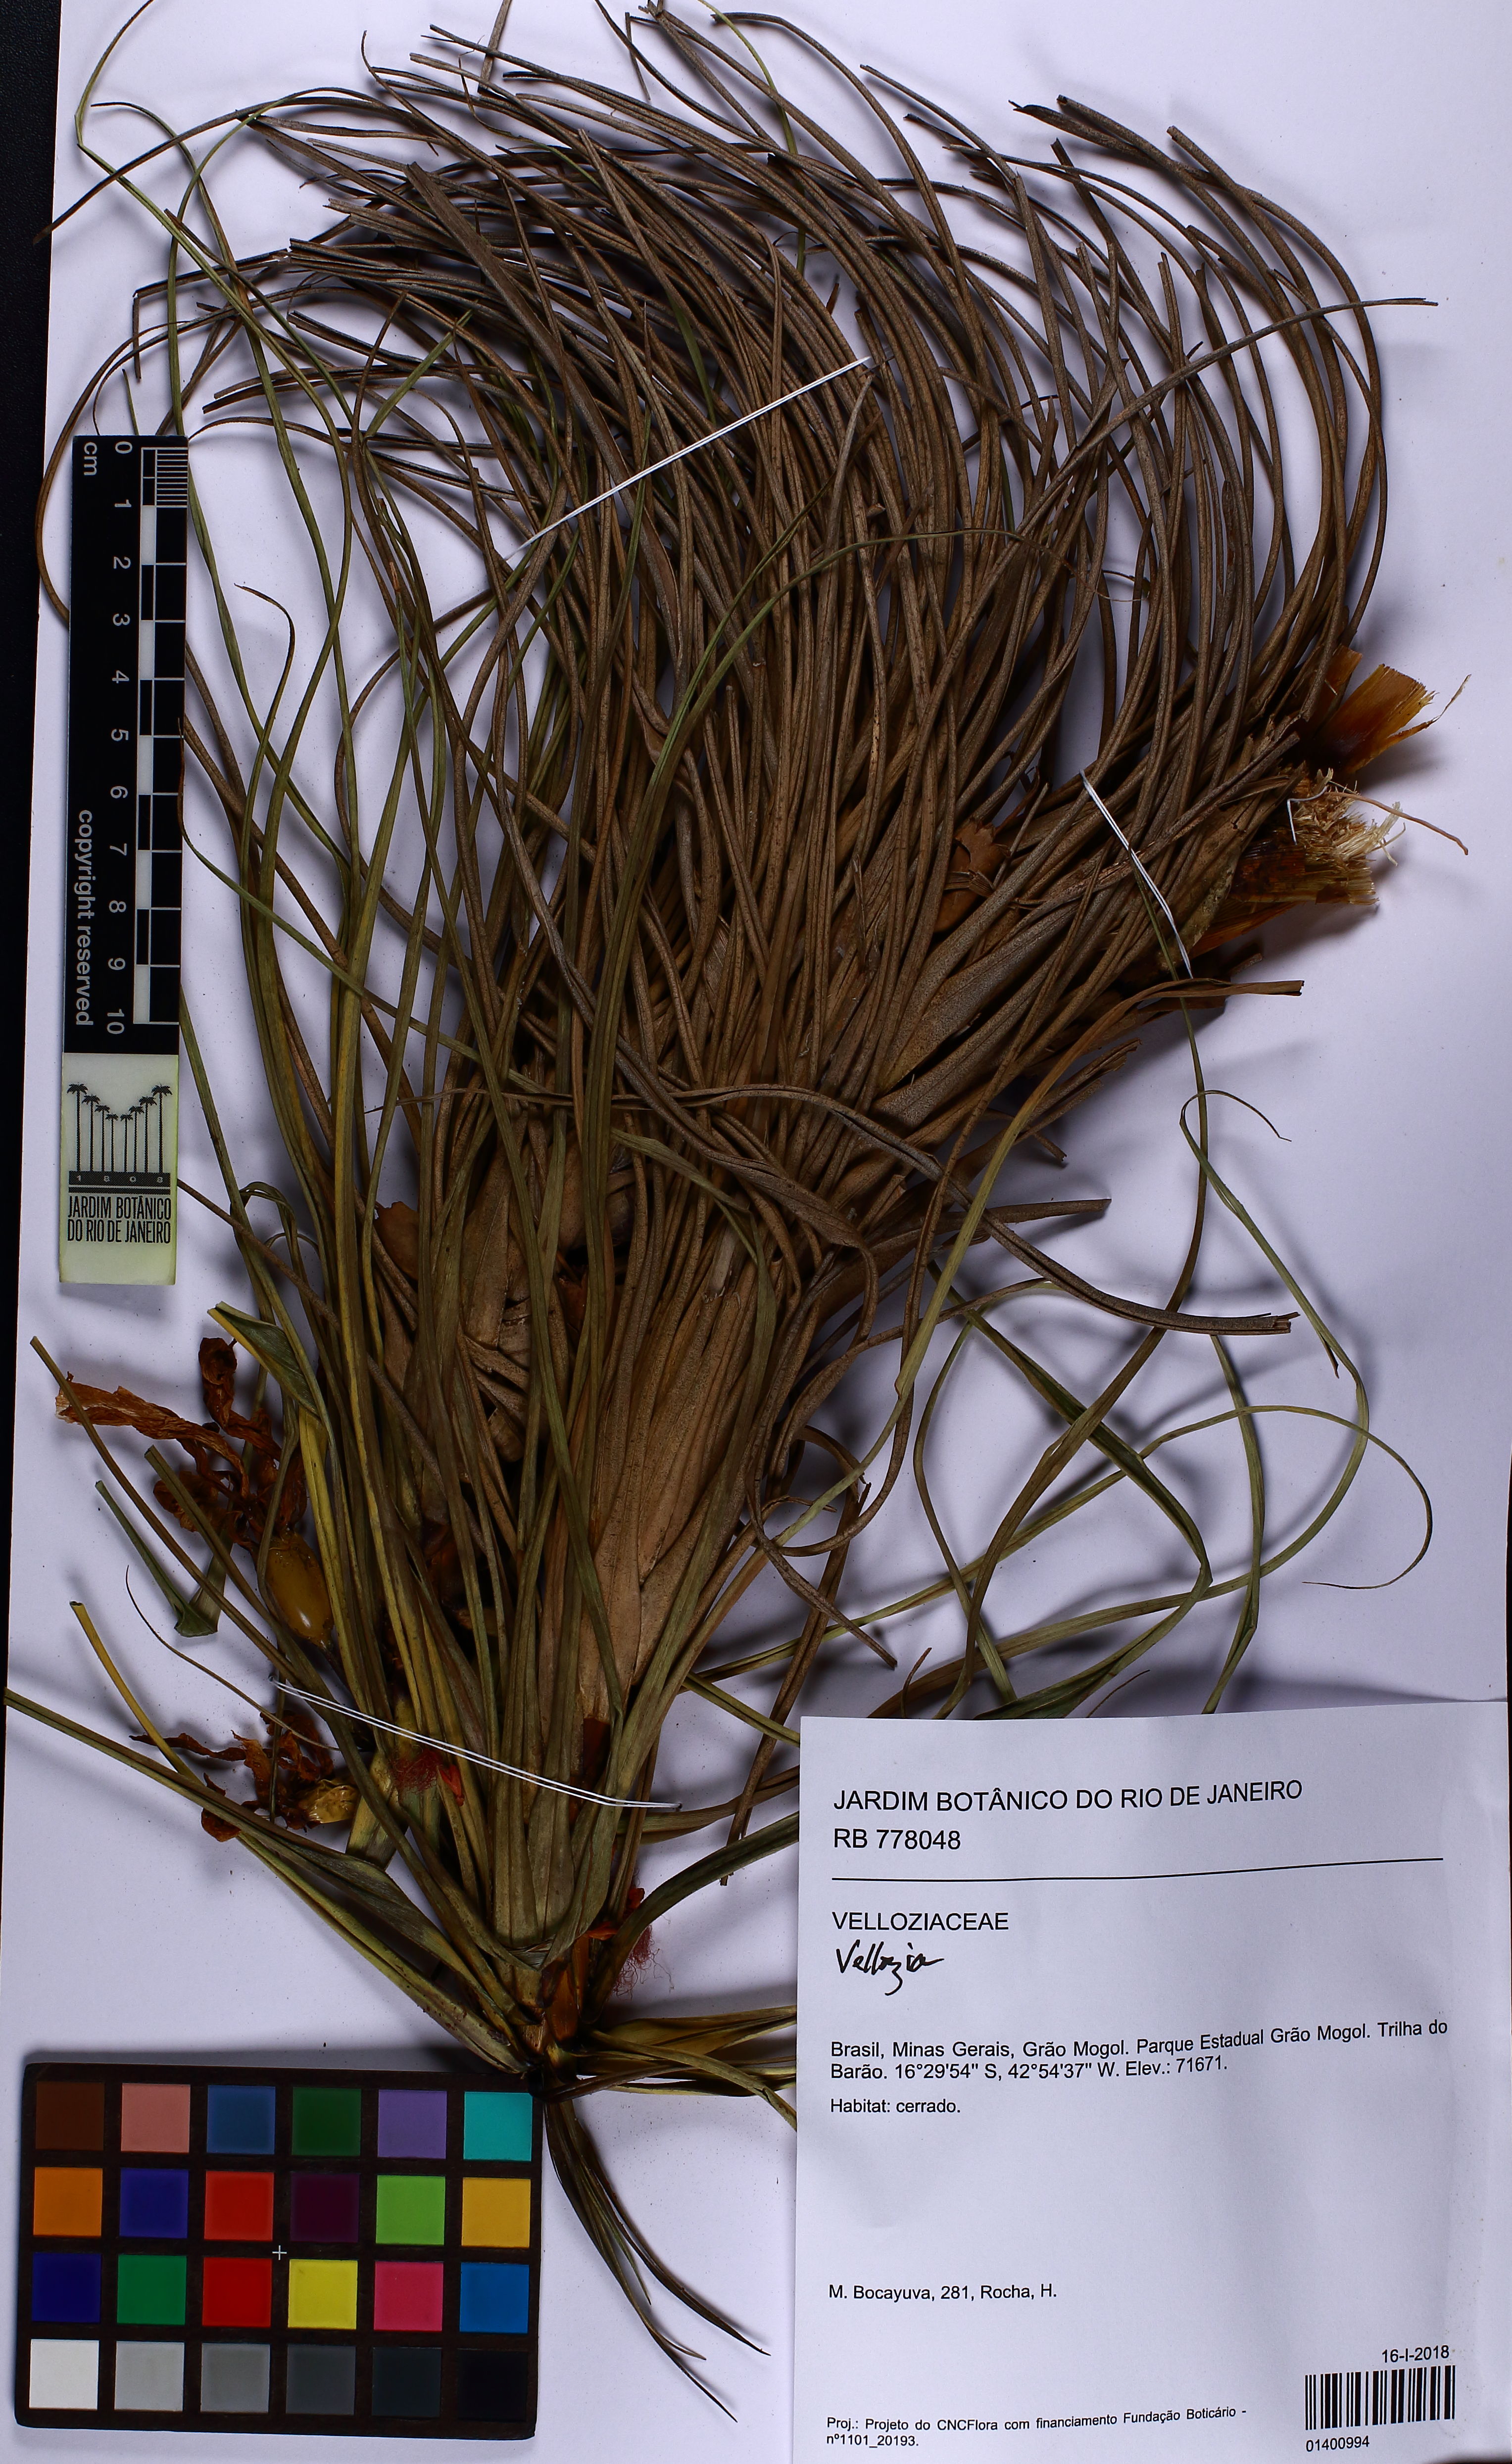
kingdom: Plantae
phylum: Tracheophyta
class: Liliopsida
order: Pandanales
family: Velloziaceae
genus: Vellozia
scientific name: Vellozia subscabra
